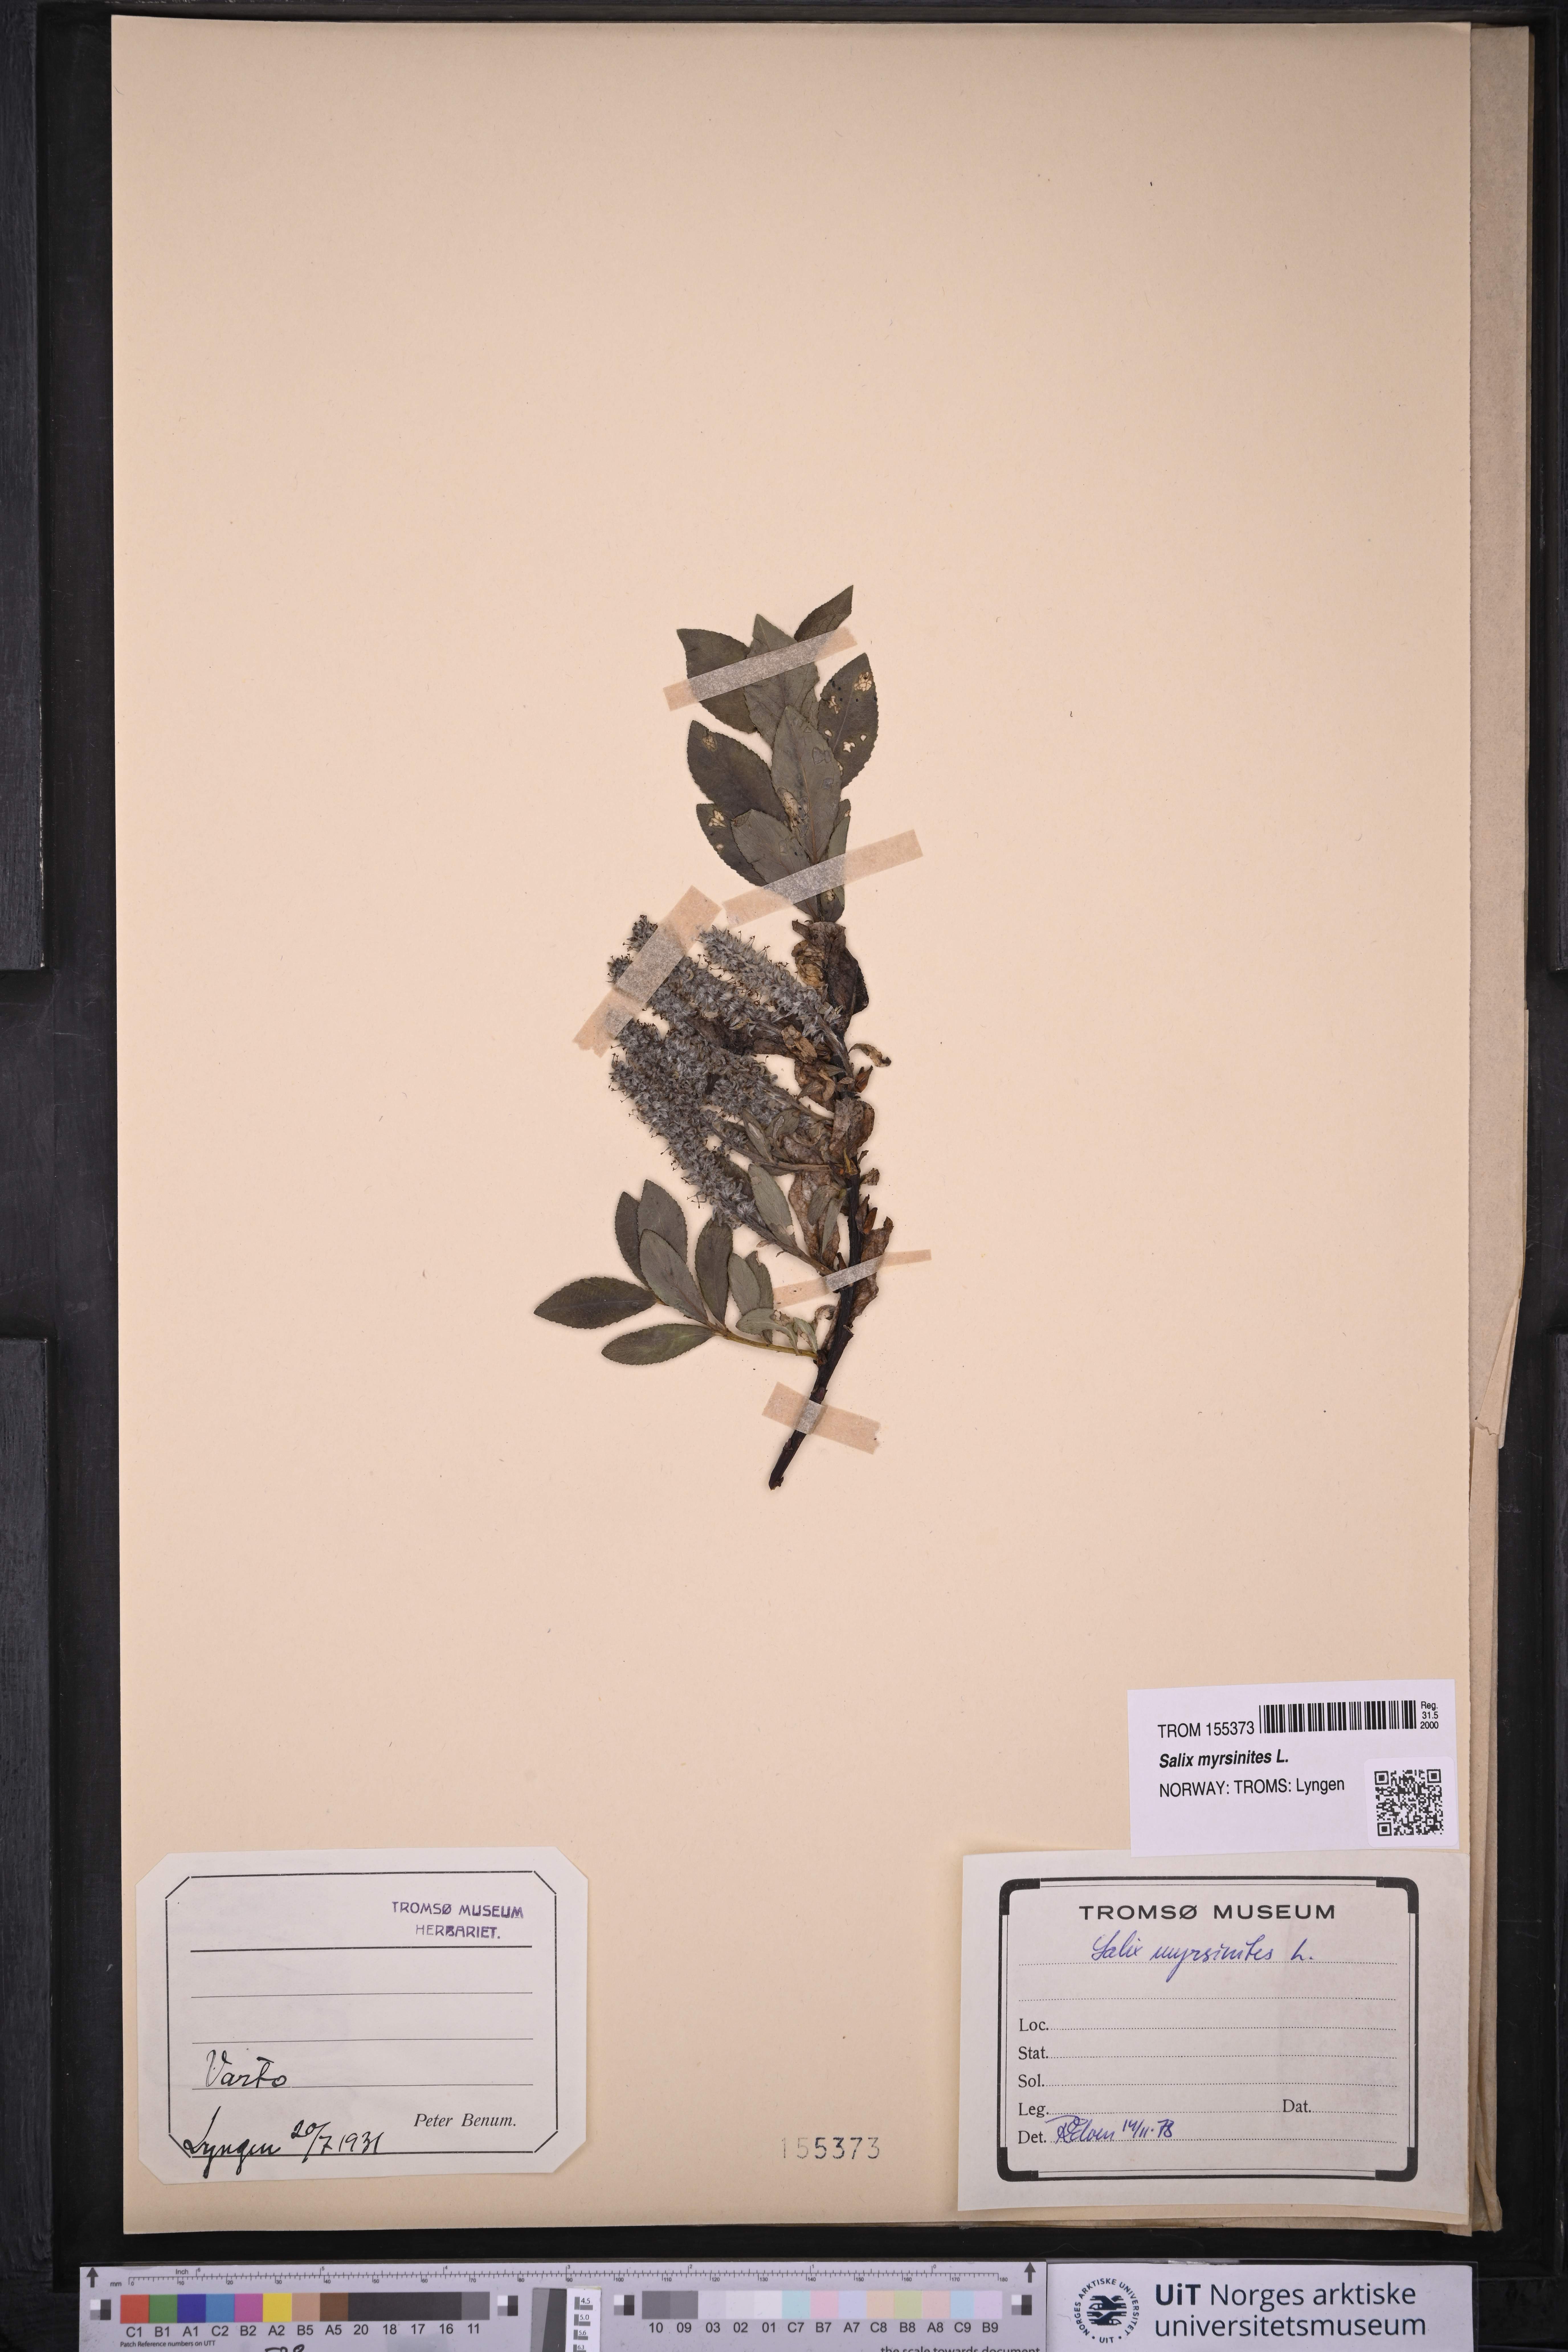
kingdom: Plantae
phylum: Tracheophyta
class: Magnoliopsida
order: Malpighiales
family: Salicaceae
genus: Salix
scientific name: Salix myrsinites
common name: Myrtle willow
